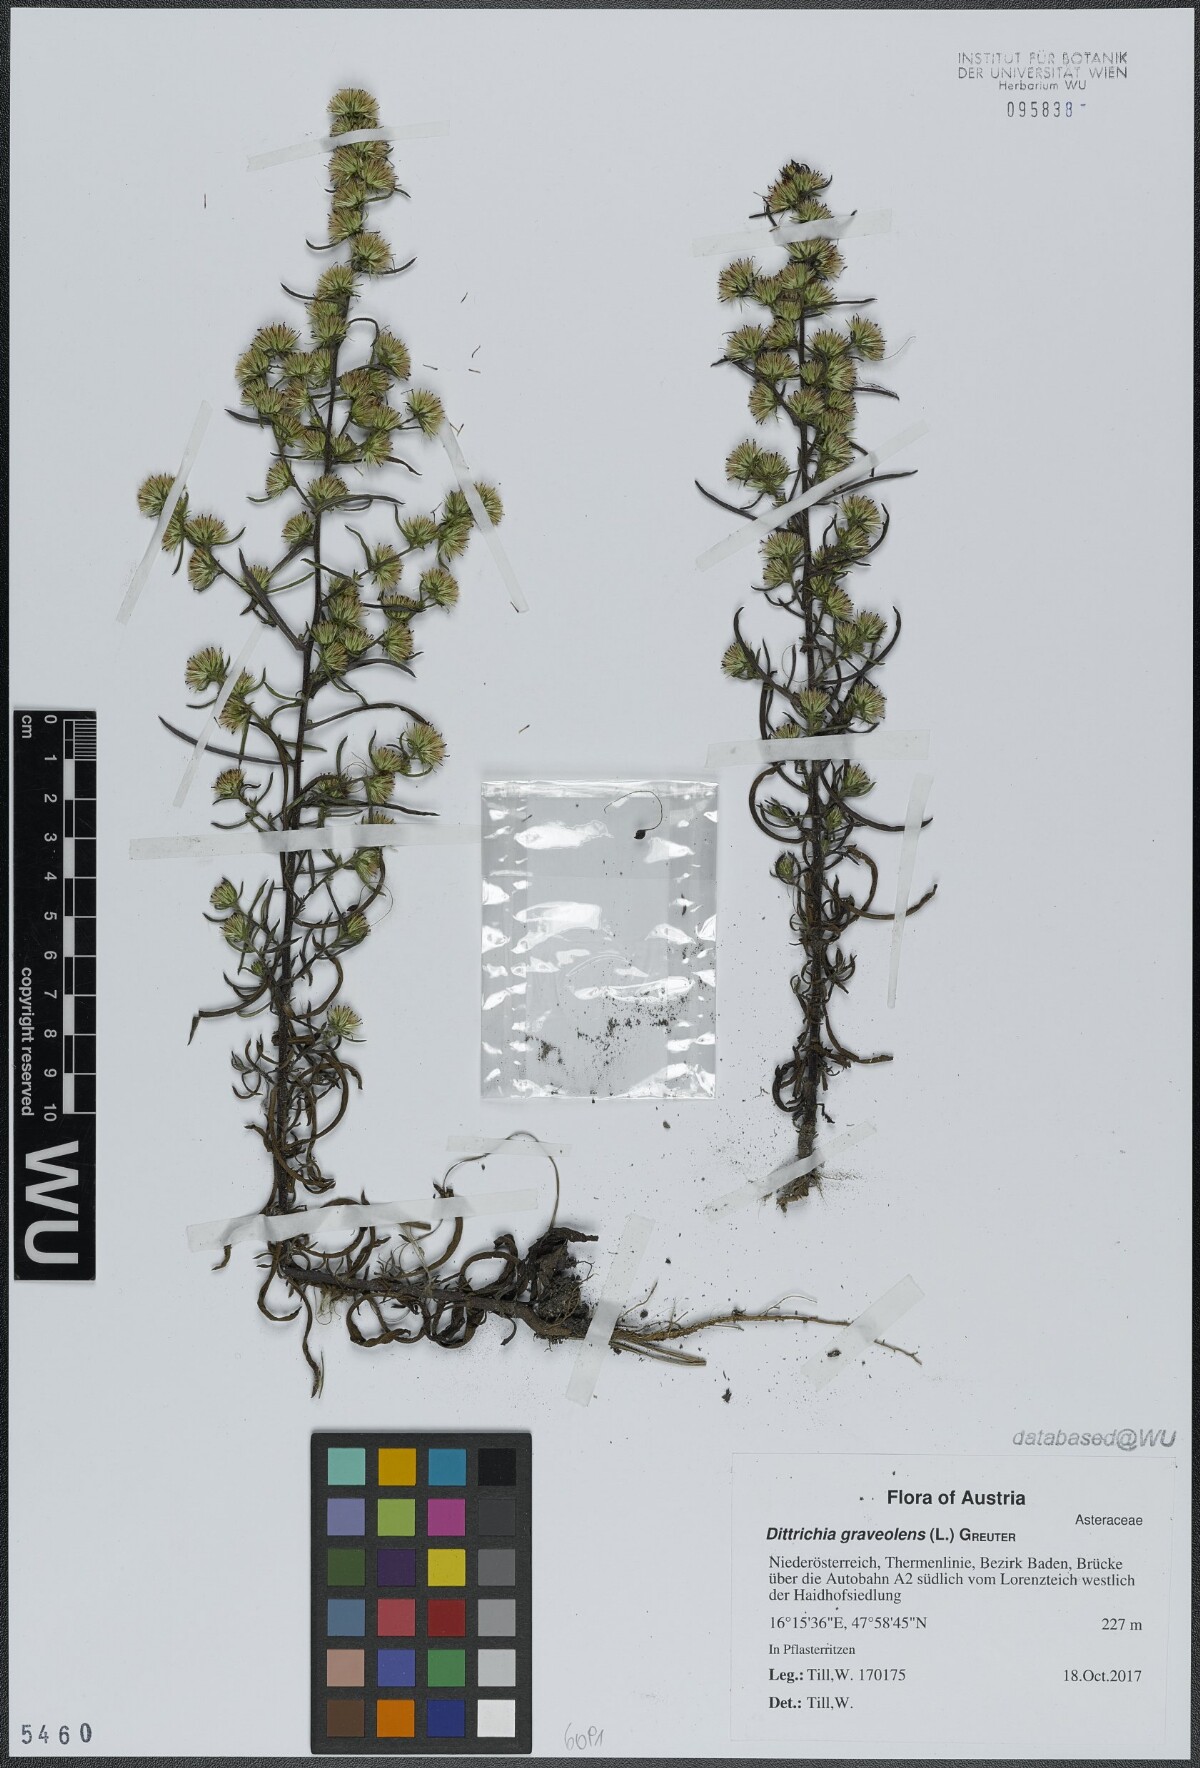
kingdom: Plantae
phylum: Tracheophyta
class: Magnoliopsida
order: Asterales
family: Asteraceae
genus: Dittrichia
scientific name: Dittrichia graveolens
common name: Stinking fleabane
